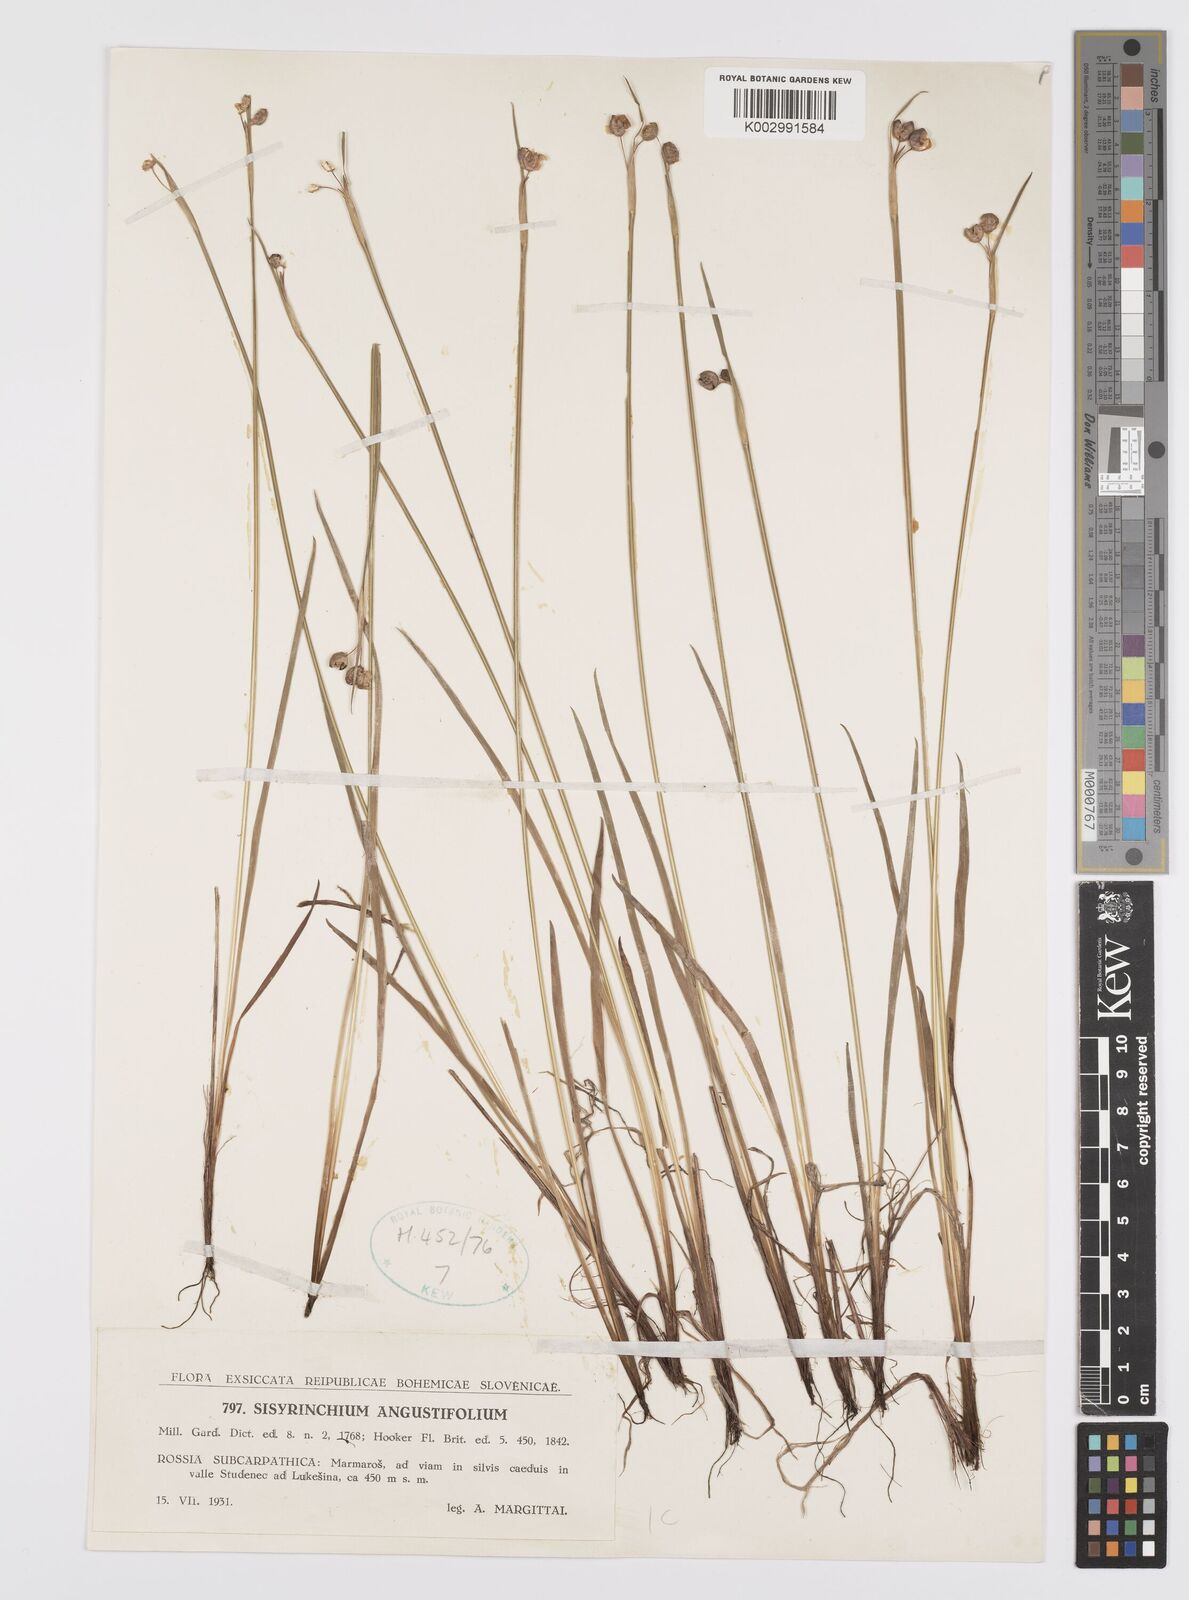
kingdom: Plantae
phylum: Tracheophyta
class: Liliopsida
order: Asparagales
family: Iridaceae
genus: Sisyrinchium
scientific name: Sisyrinchium angustifolium
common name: Narrow-leaf blue-eyed-grass
